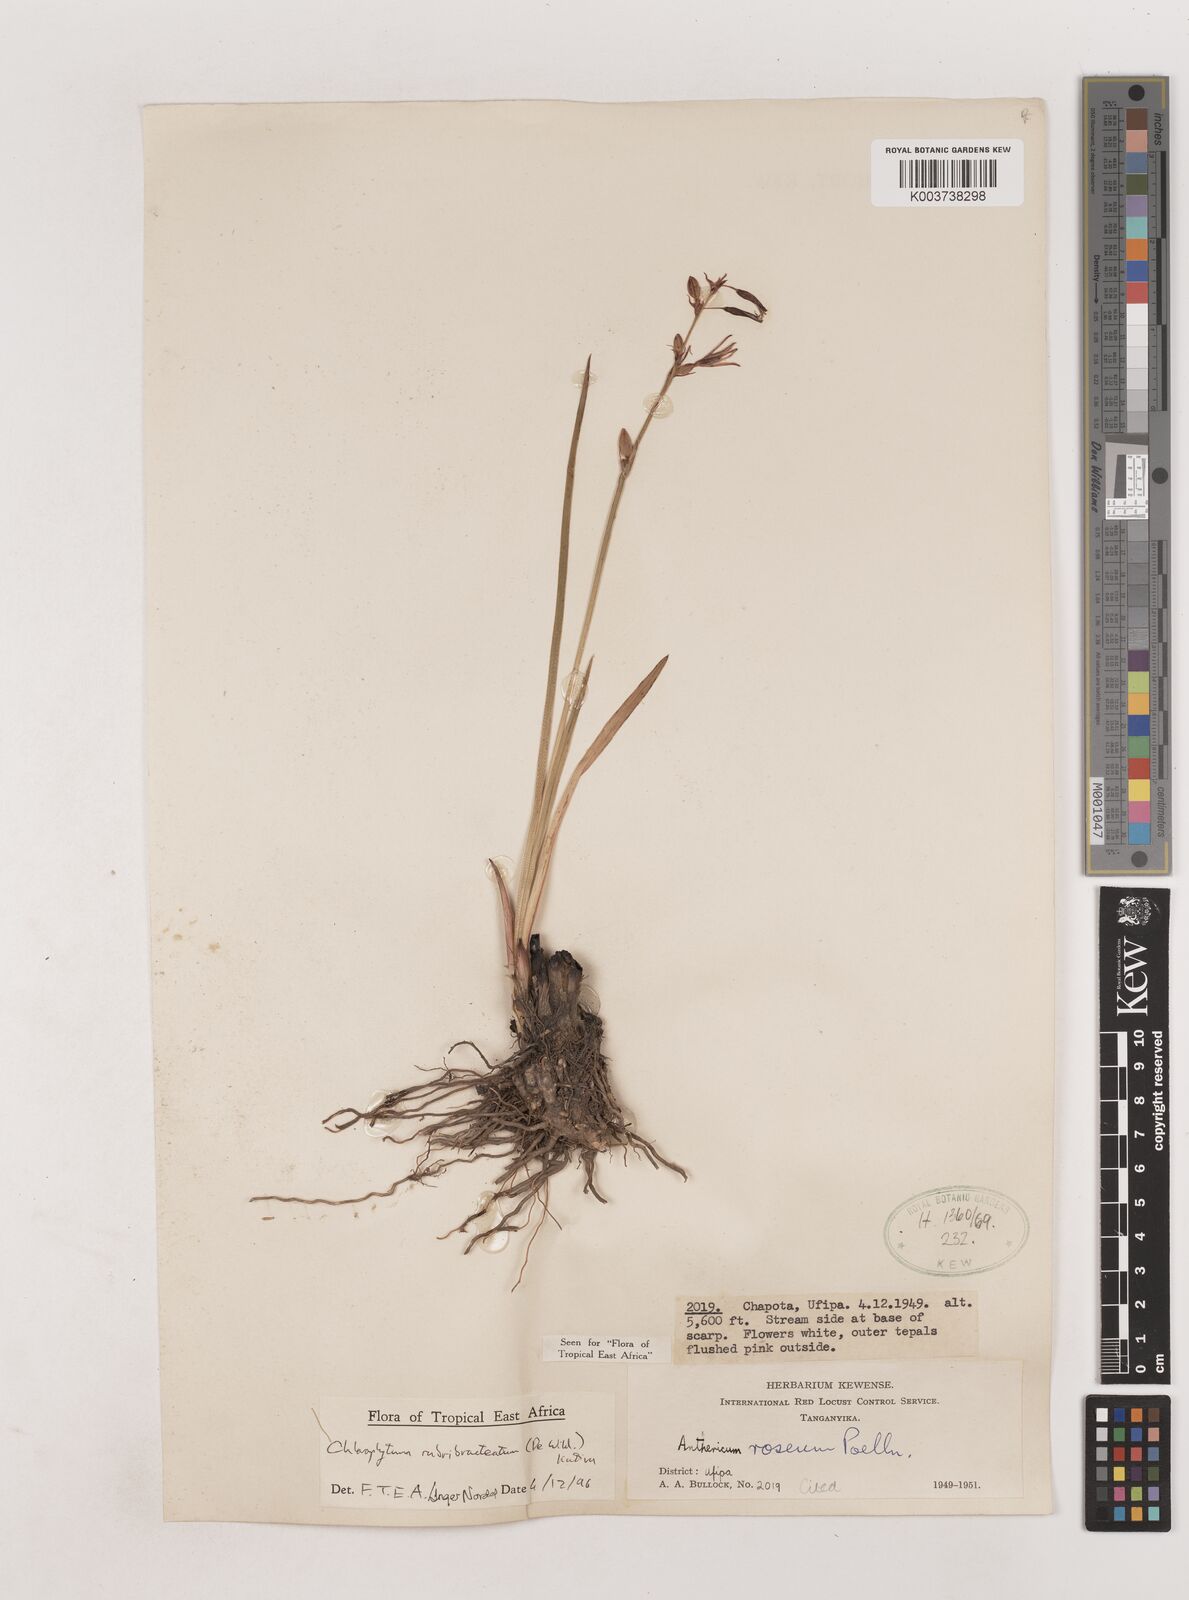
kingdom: Plantae
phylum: Tracheophyta
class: Liliopsida
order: Asparagales
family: Asparagaceae
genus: Chlorophytum
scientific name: Chlorophytum rubribracteatum
